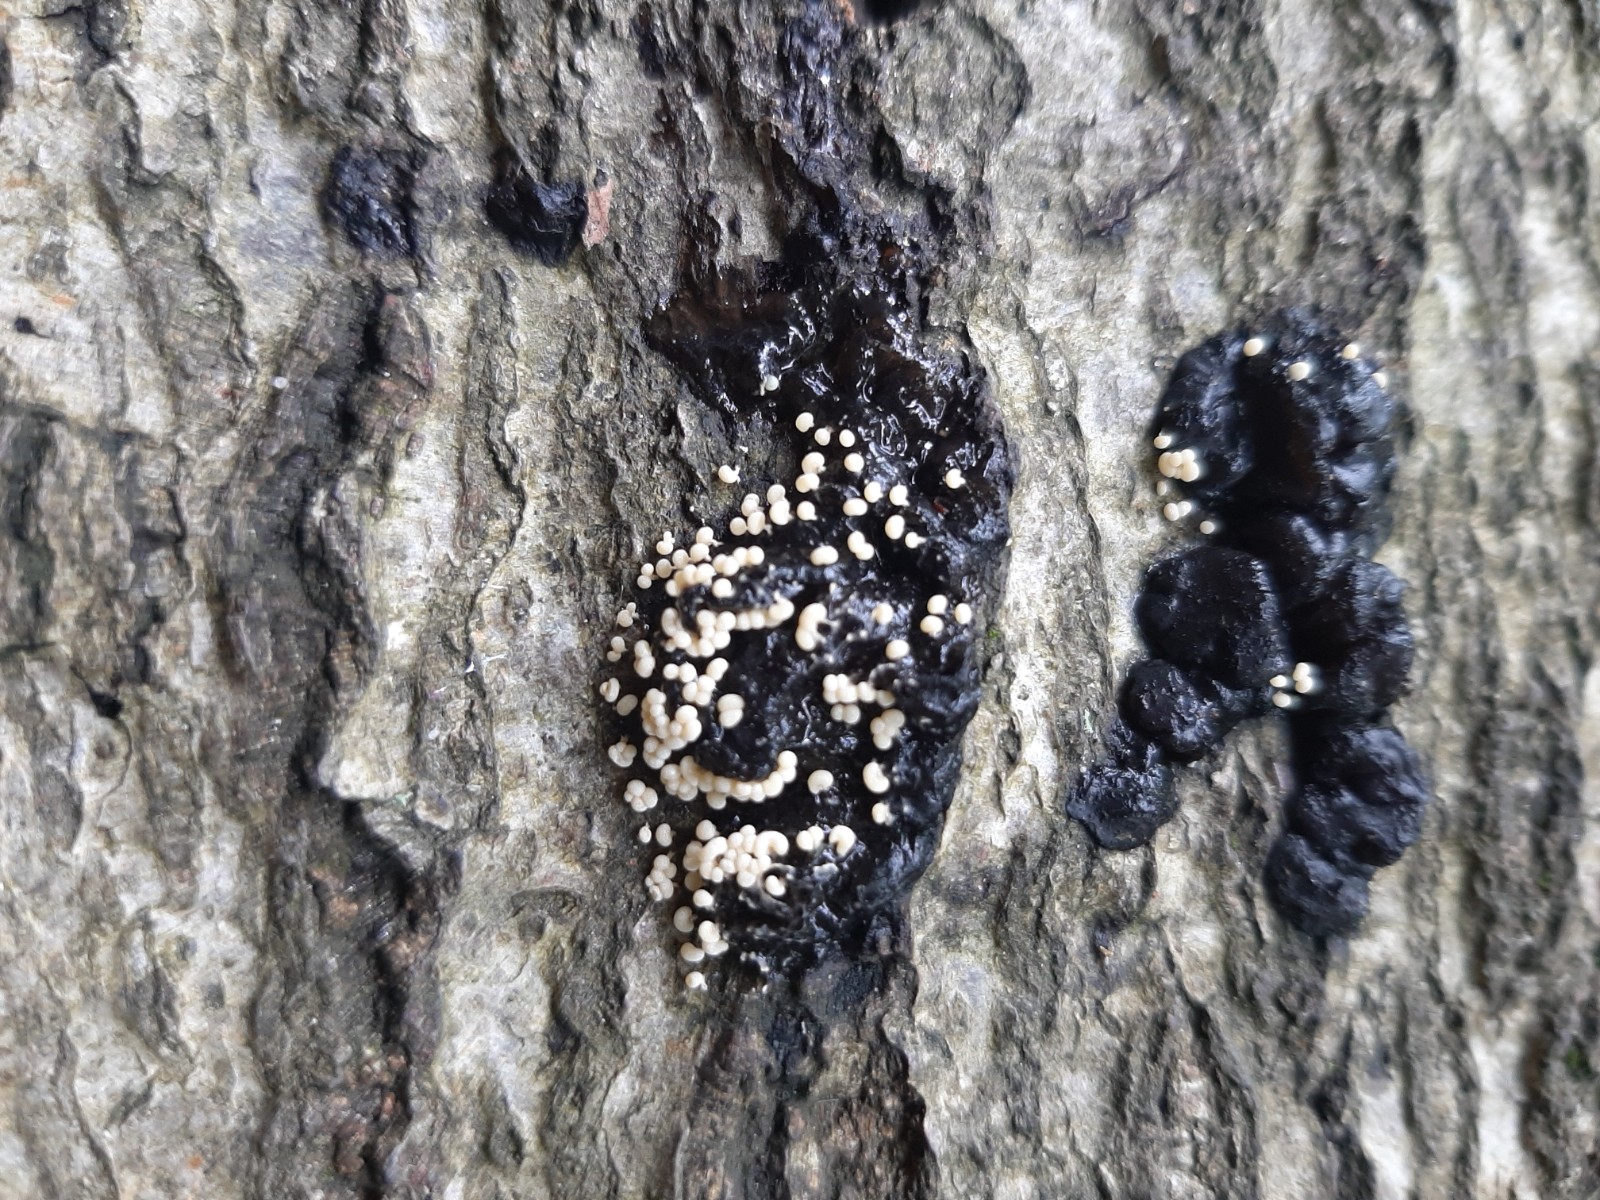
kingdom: Protozoa
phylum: Mycetozoa
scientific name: Mycetozoa
